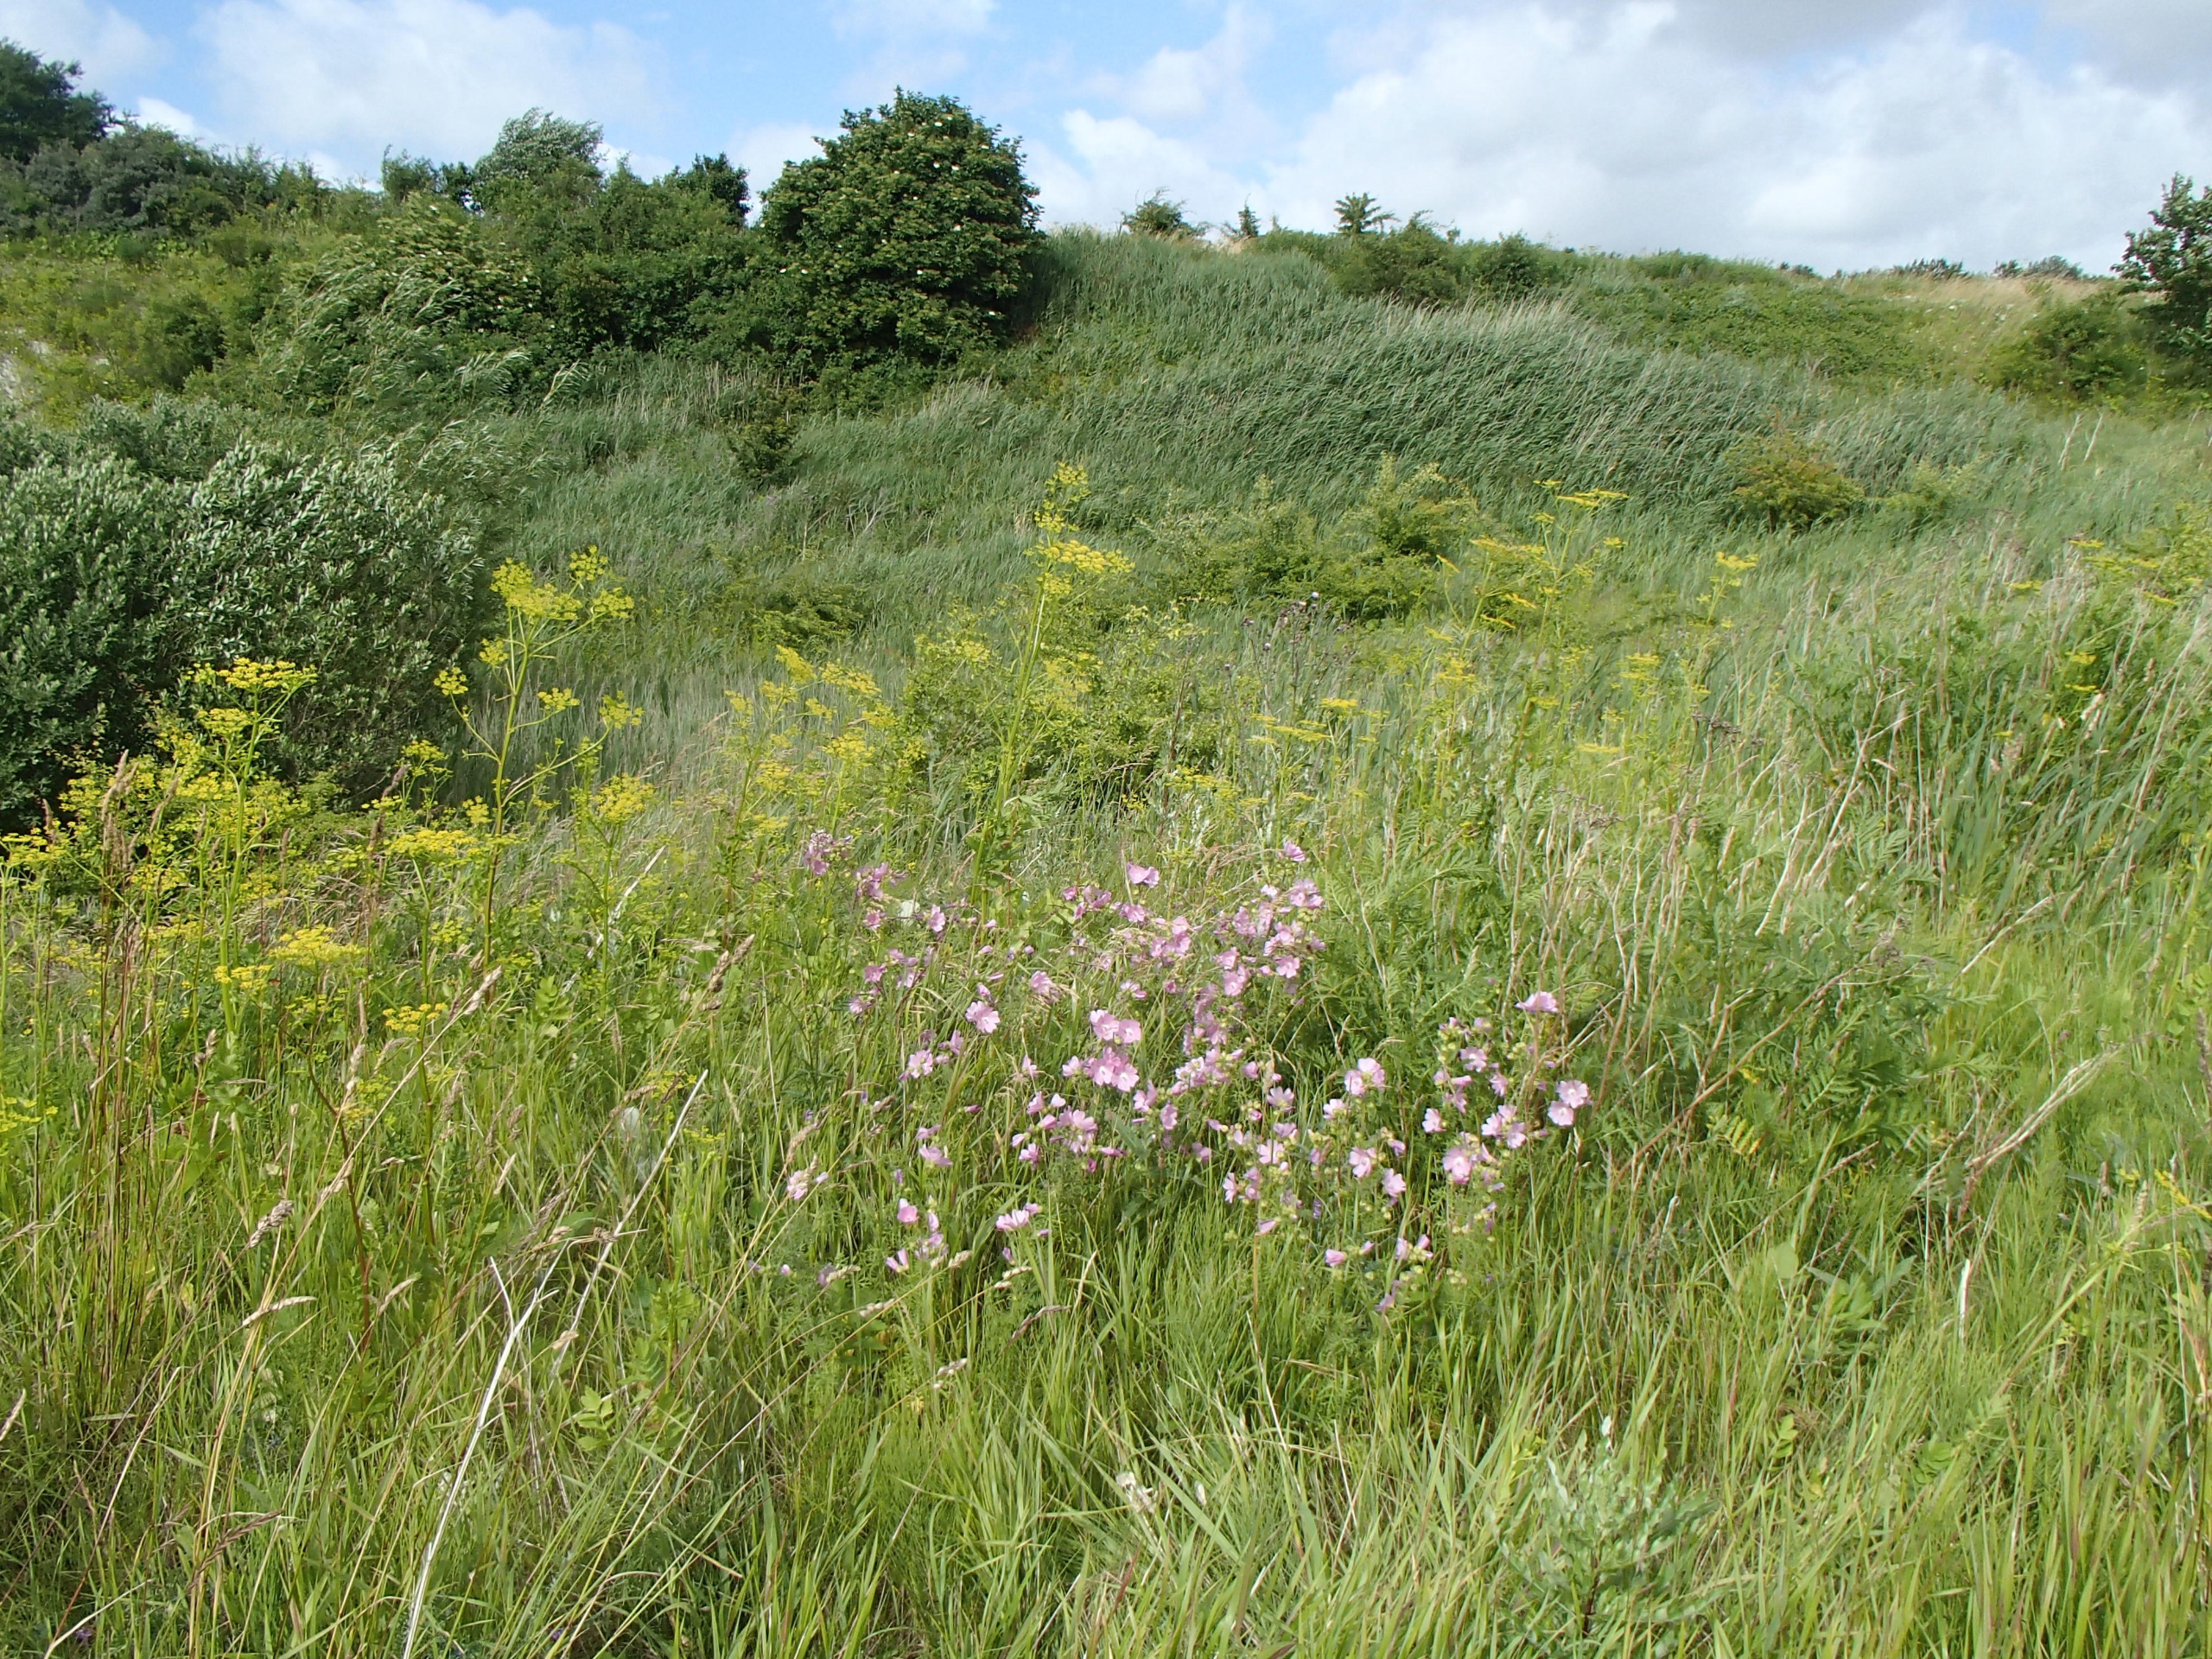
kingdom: Plantae
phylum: Tracheophyta
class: Magnoliopsida
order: Caryophyllales
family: Caryophyllaceae
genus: Dianthus
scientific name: Dianthus deltoides
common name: Bakke-nellike
